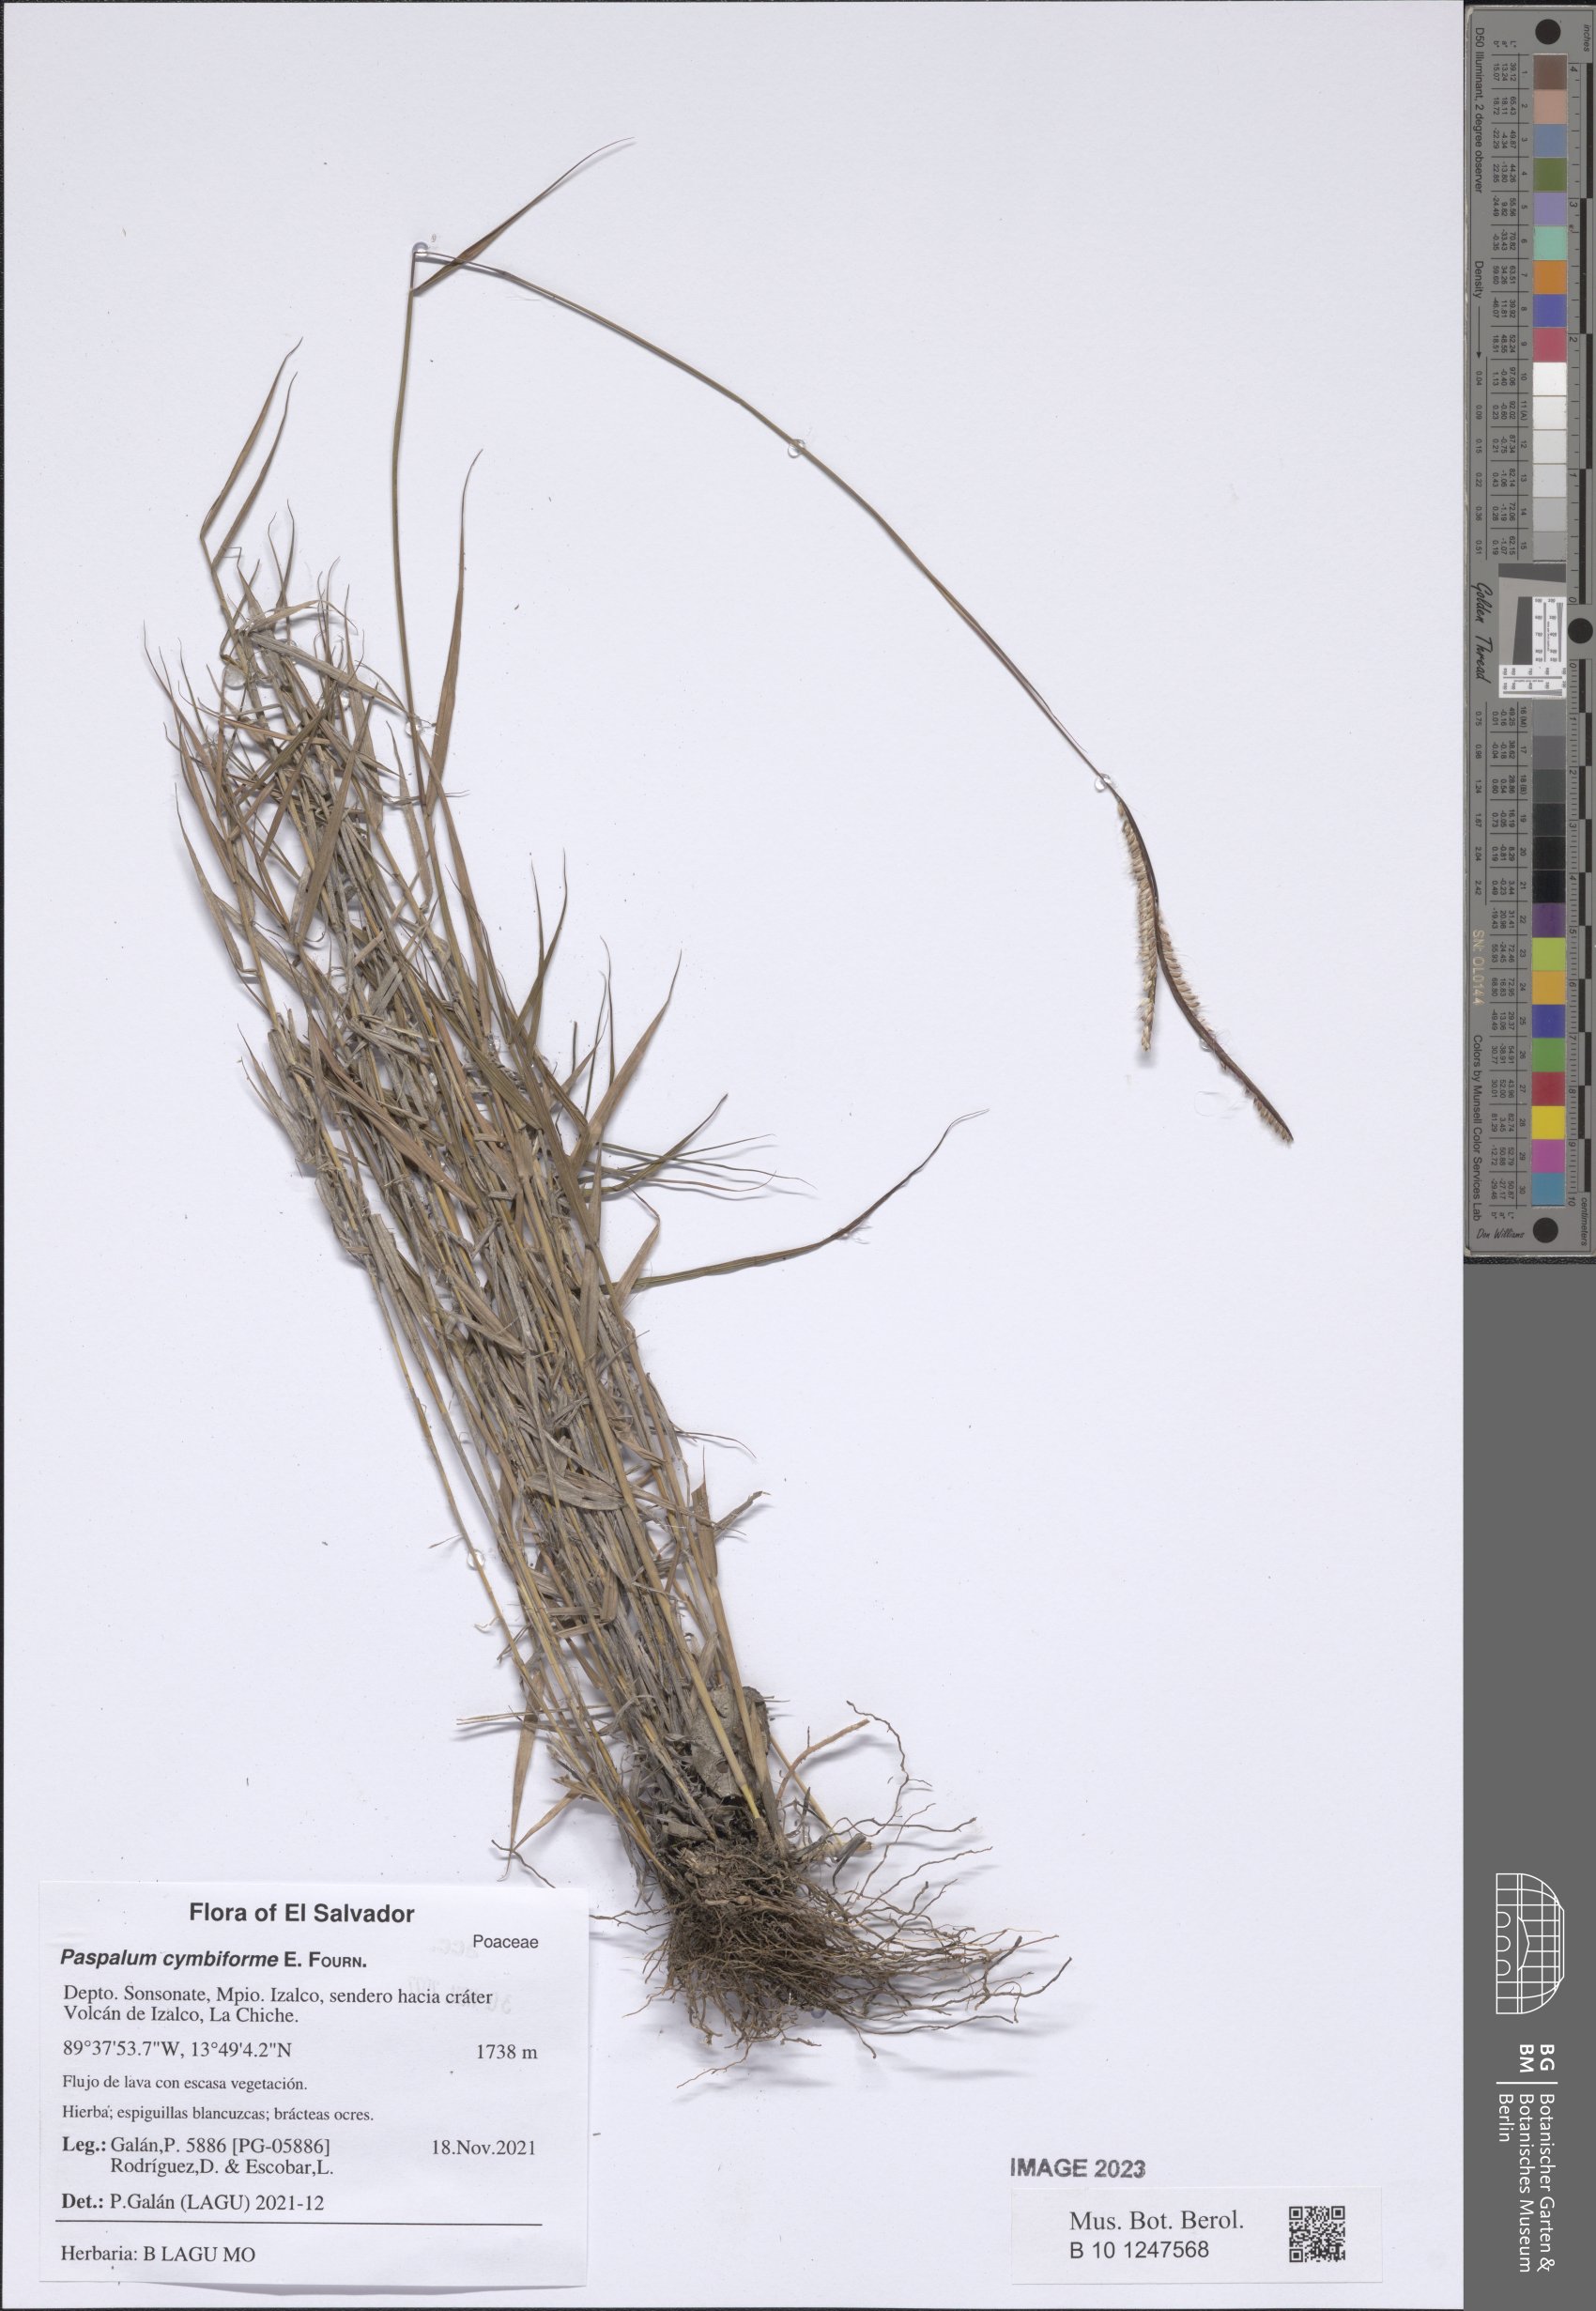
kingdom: Plantae
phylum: Tracheophyta
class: Liliopsida
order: Poales
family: Poaceae
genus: Paspalum
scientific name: Paspalum cymbiforme
